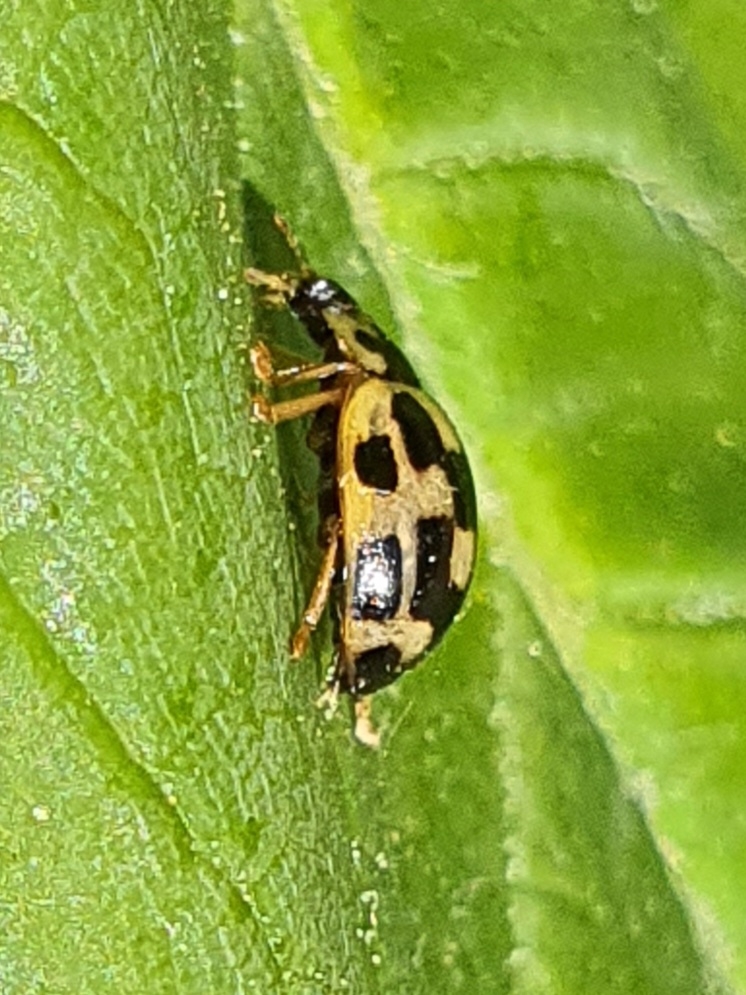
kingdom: Animalia
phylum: Arthropoda
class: Insecta
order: Coleoptera
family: Coccinellidae
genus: Propylaea
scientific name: Propylaea quatuordecimpunctata
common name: Skakbræt
